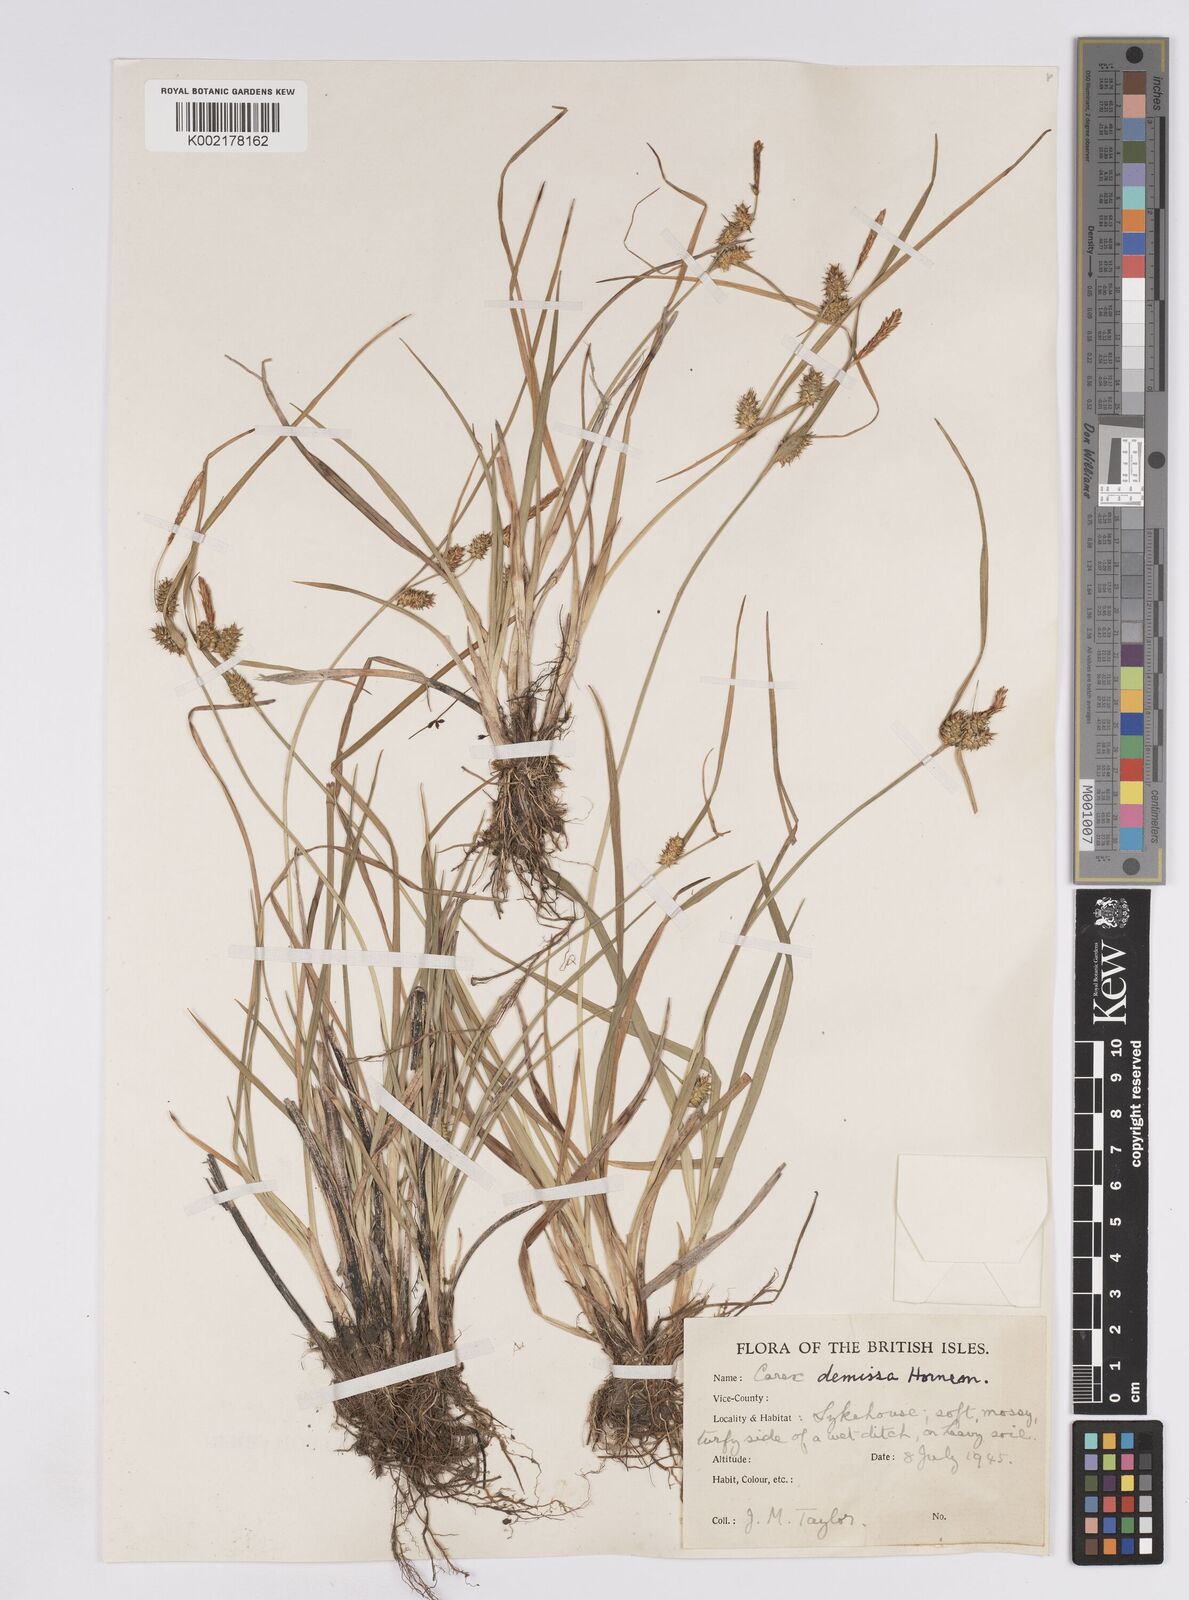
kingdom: Plantae
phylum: Tracheophyta
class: Liliopsida
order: Poales
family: Cyperaceae
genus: Carex
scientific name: Carex demissa
